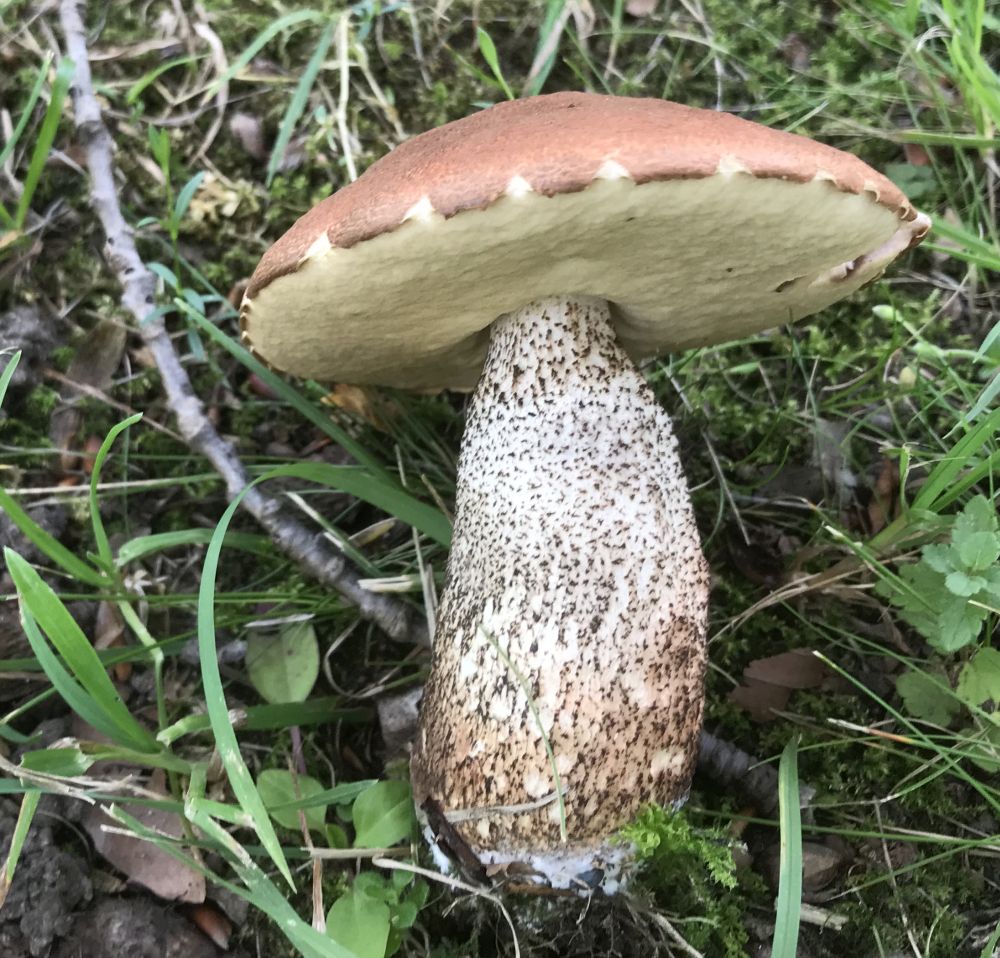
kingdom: Fungi
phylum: Basidiomycota
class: Agaricomycetes
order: Boletales
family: Boletaceae
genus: Leccinum
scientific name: Leccinum aurantiacum
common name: rustrød skælrørhat
